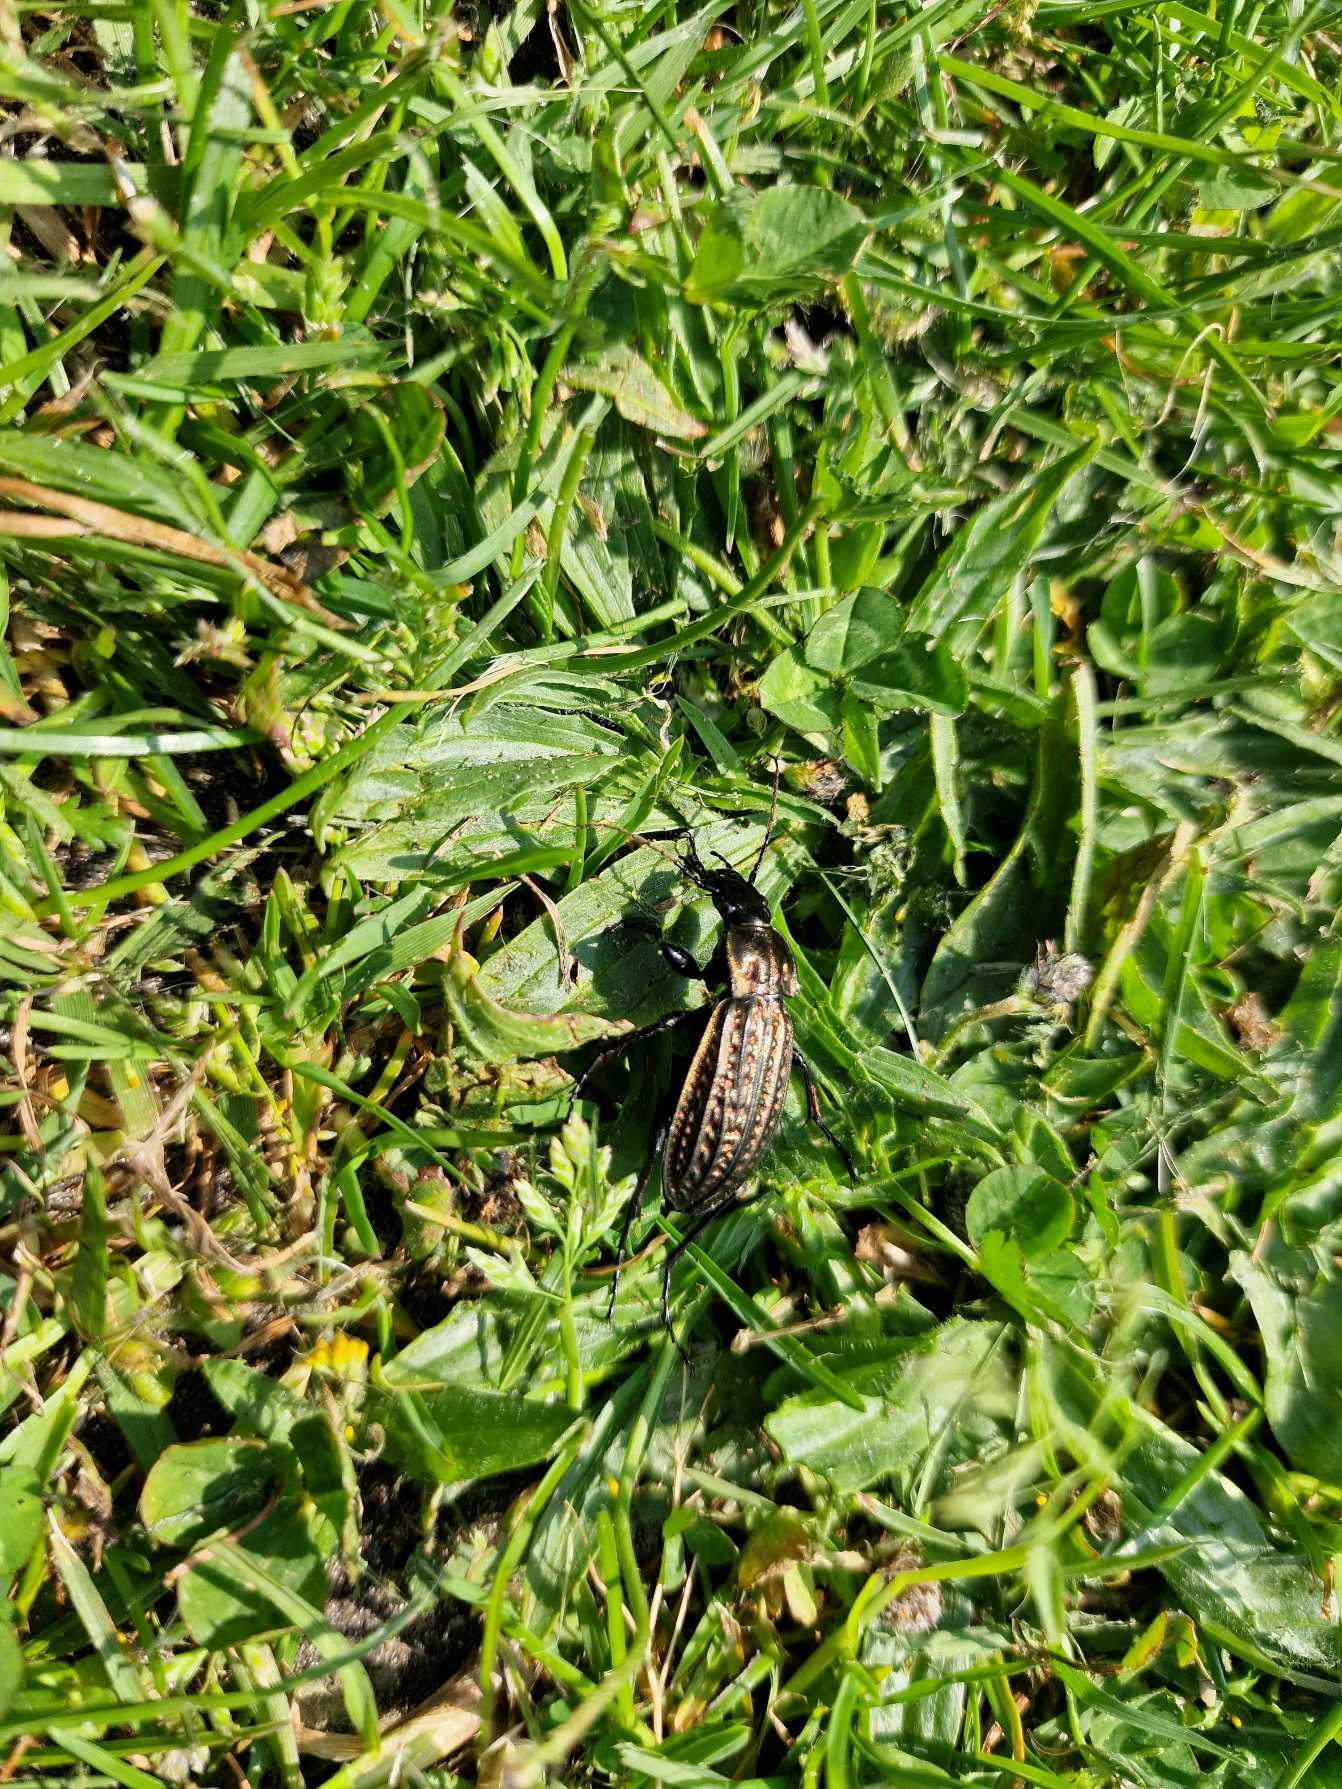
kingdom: Animalia
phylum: Arthropoda
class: Insecta
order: Coleoptera
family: Carabidae
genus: Carabus
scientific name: Carabus clatratus
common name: Dyndløber
